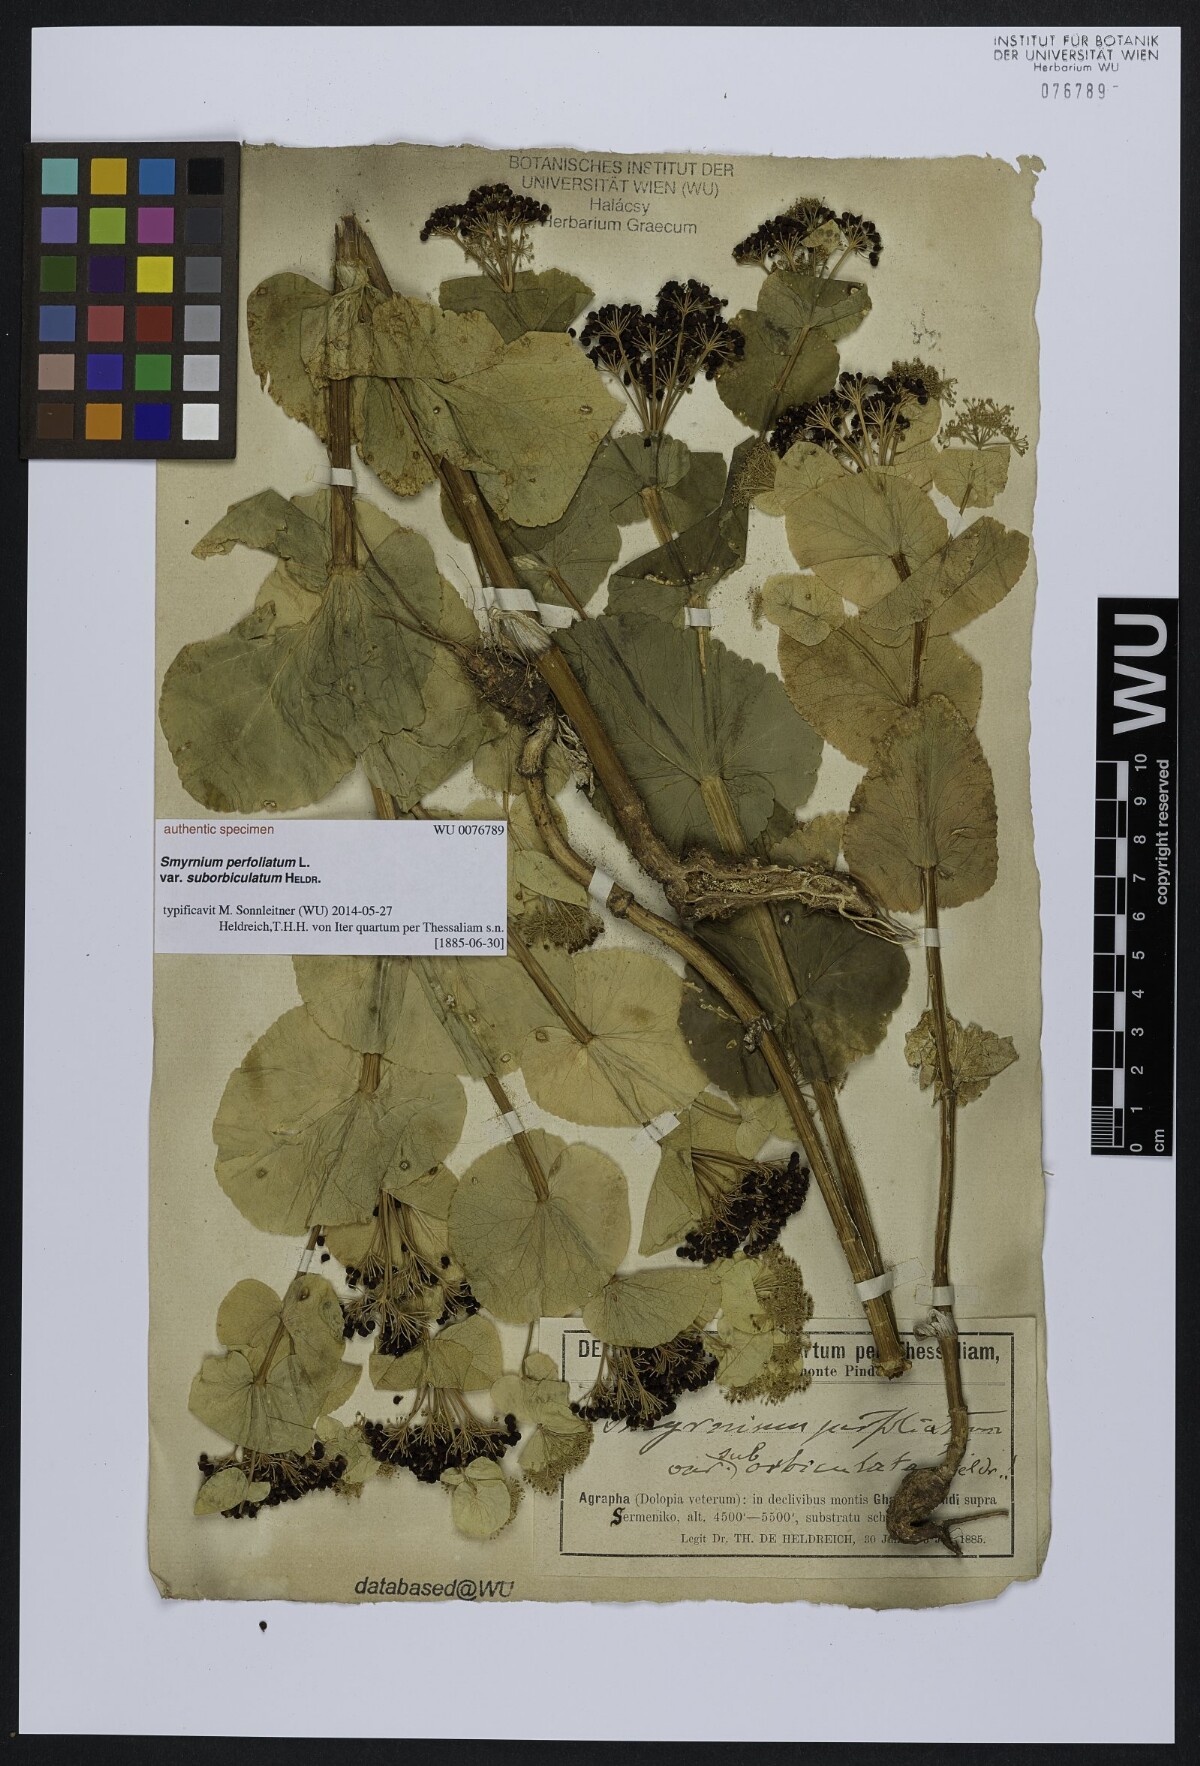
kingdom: Plantae
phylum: Tracheophyta
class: Magnoliopsida
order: Apiales
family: Apiaceae
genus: Smyrnium
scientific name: Smyrnium perfoliatum
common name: Perfoliate alexanders
